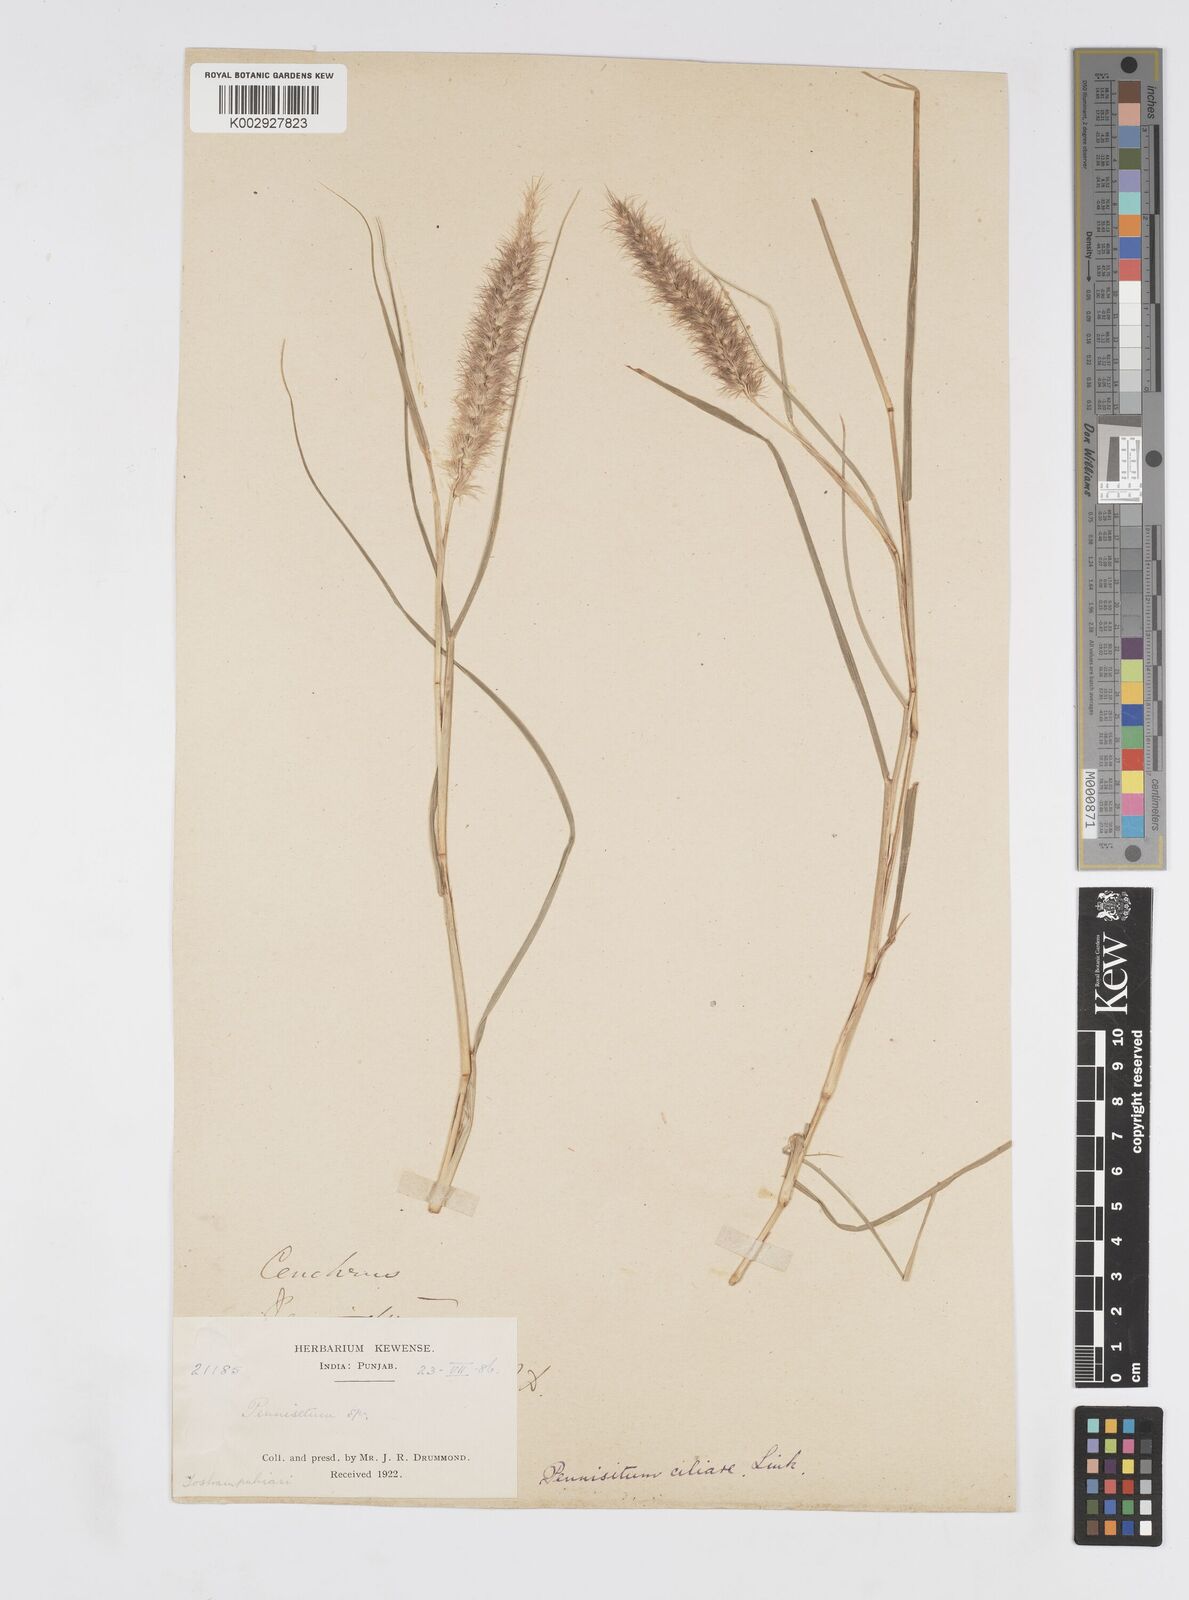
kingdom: Plantae
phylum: Tracheophyta
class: Liliopsida
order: Poales
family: Poaceae
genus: Cenchrus
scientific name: Cenchrus ciliaris
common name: Buffelgrass
